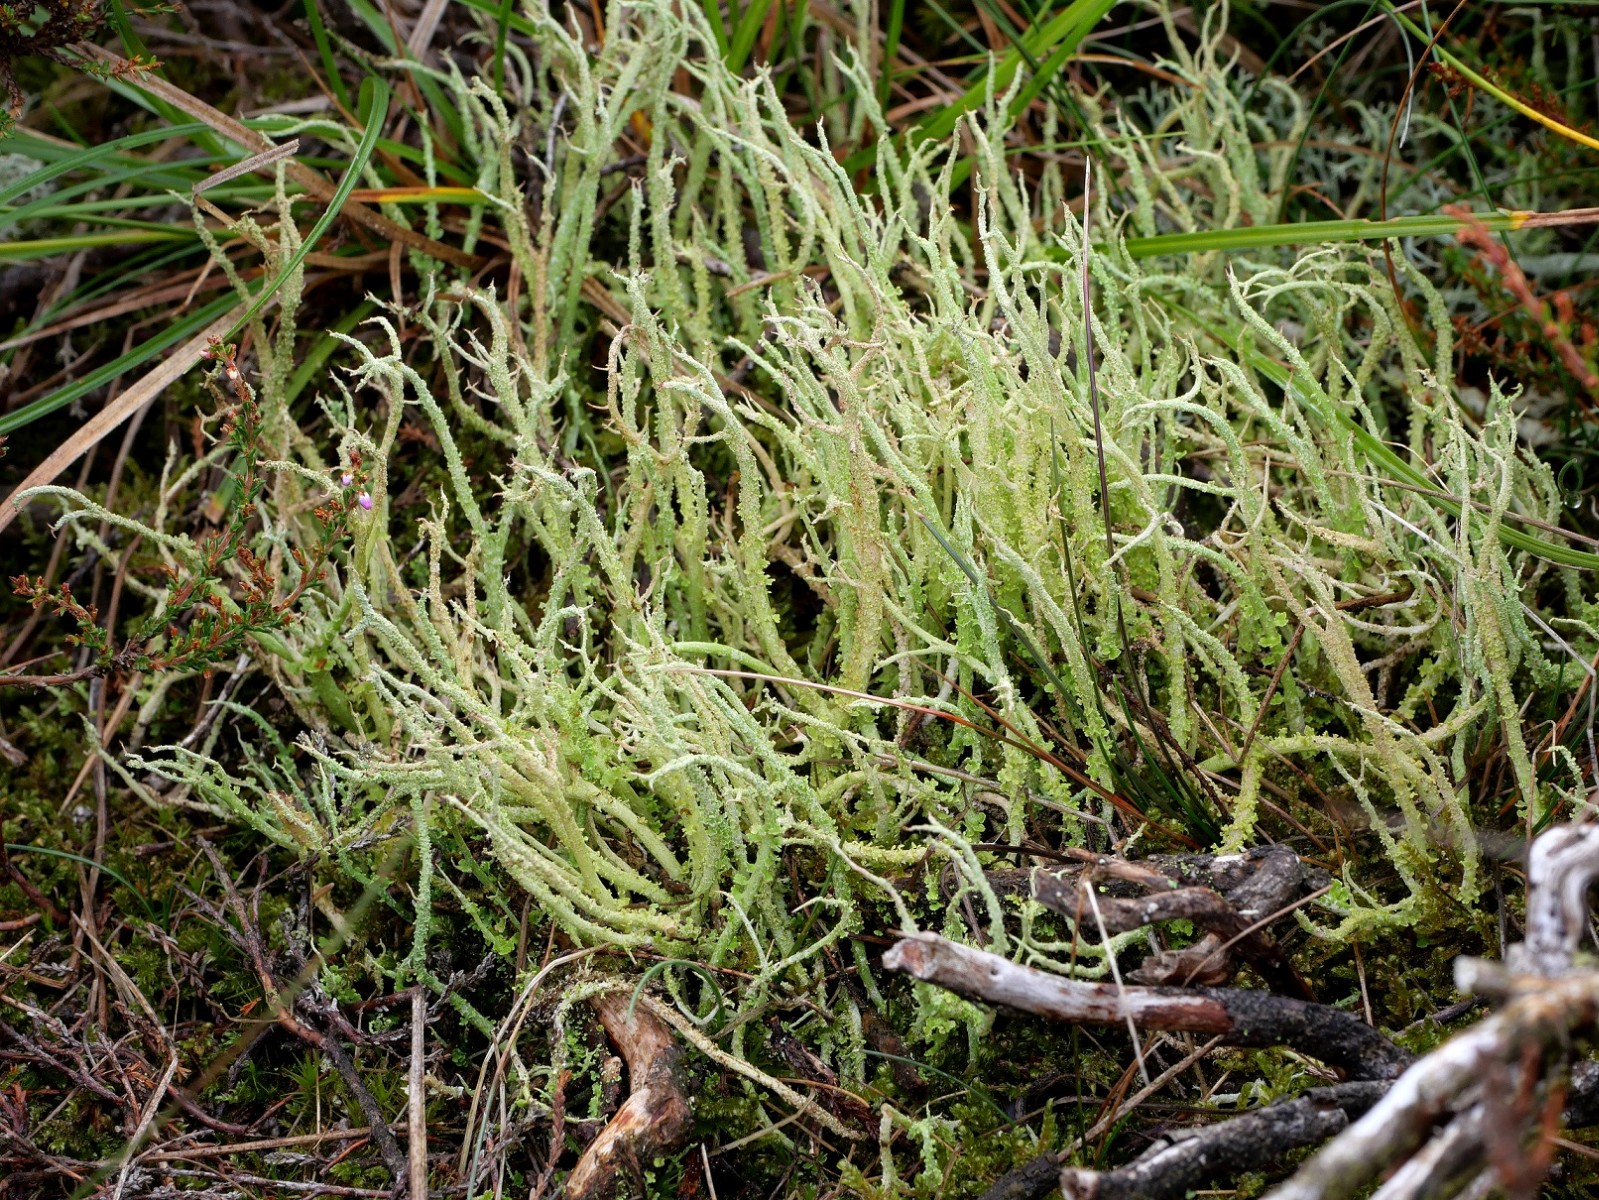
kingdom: Fungi
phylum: Ascomycota
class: Lecanoromycetes
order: Lecanorales
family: Cladoniaceae
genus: Cladonia
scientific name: Cladonia scabriuscula
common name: ru bægerlav
